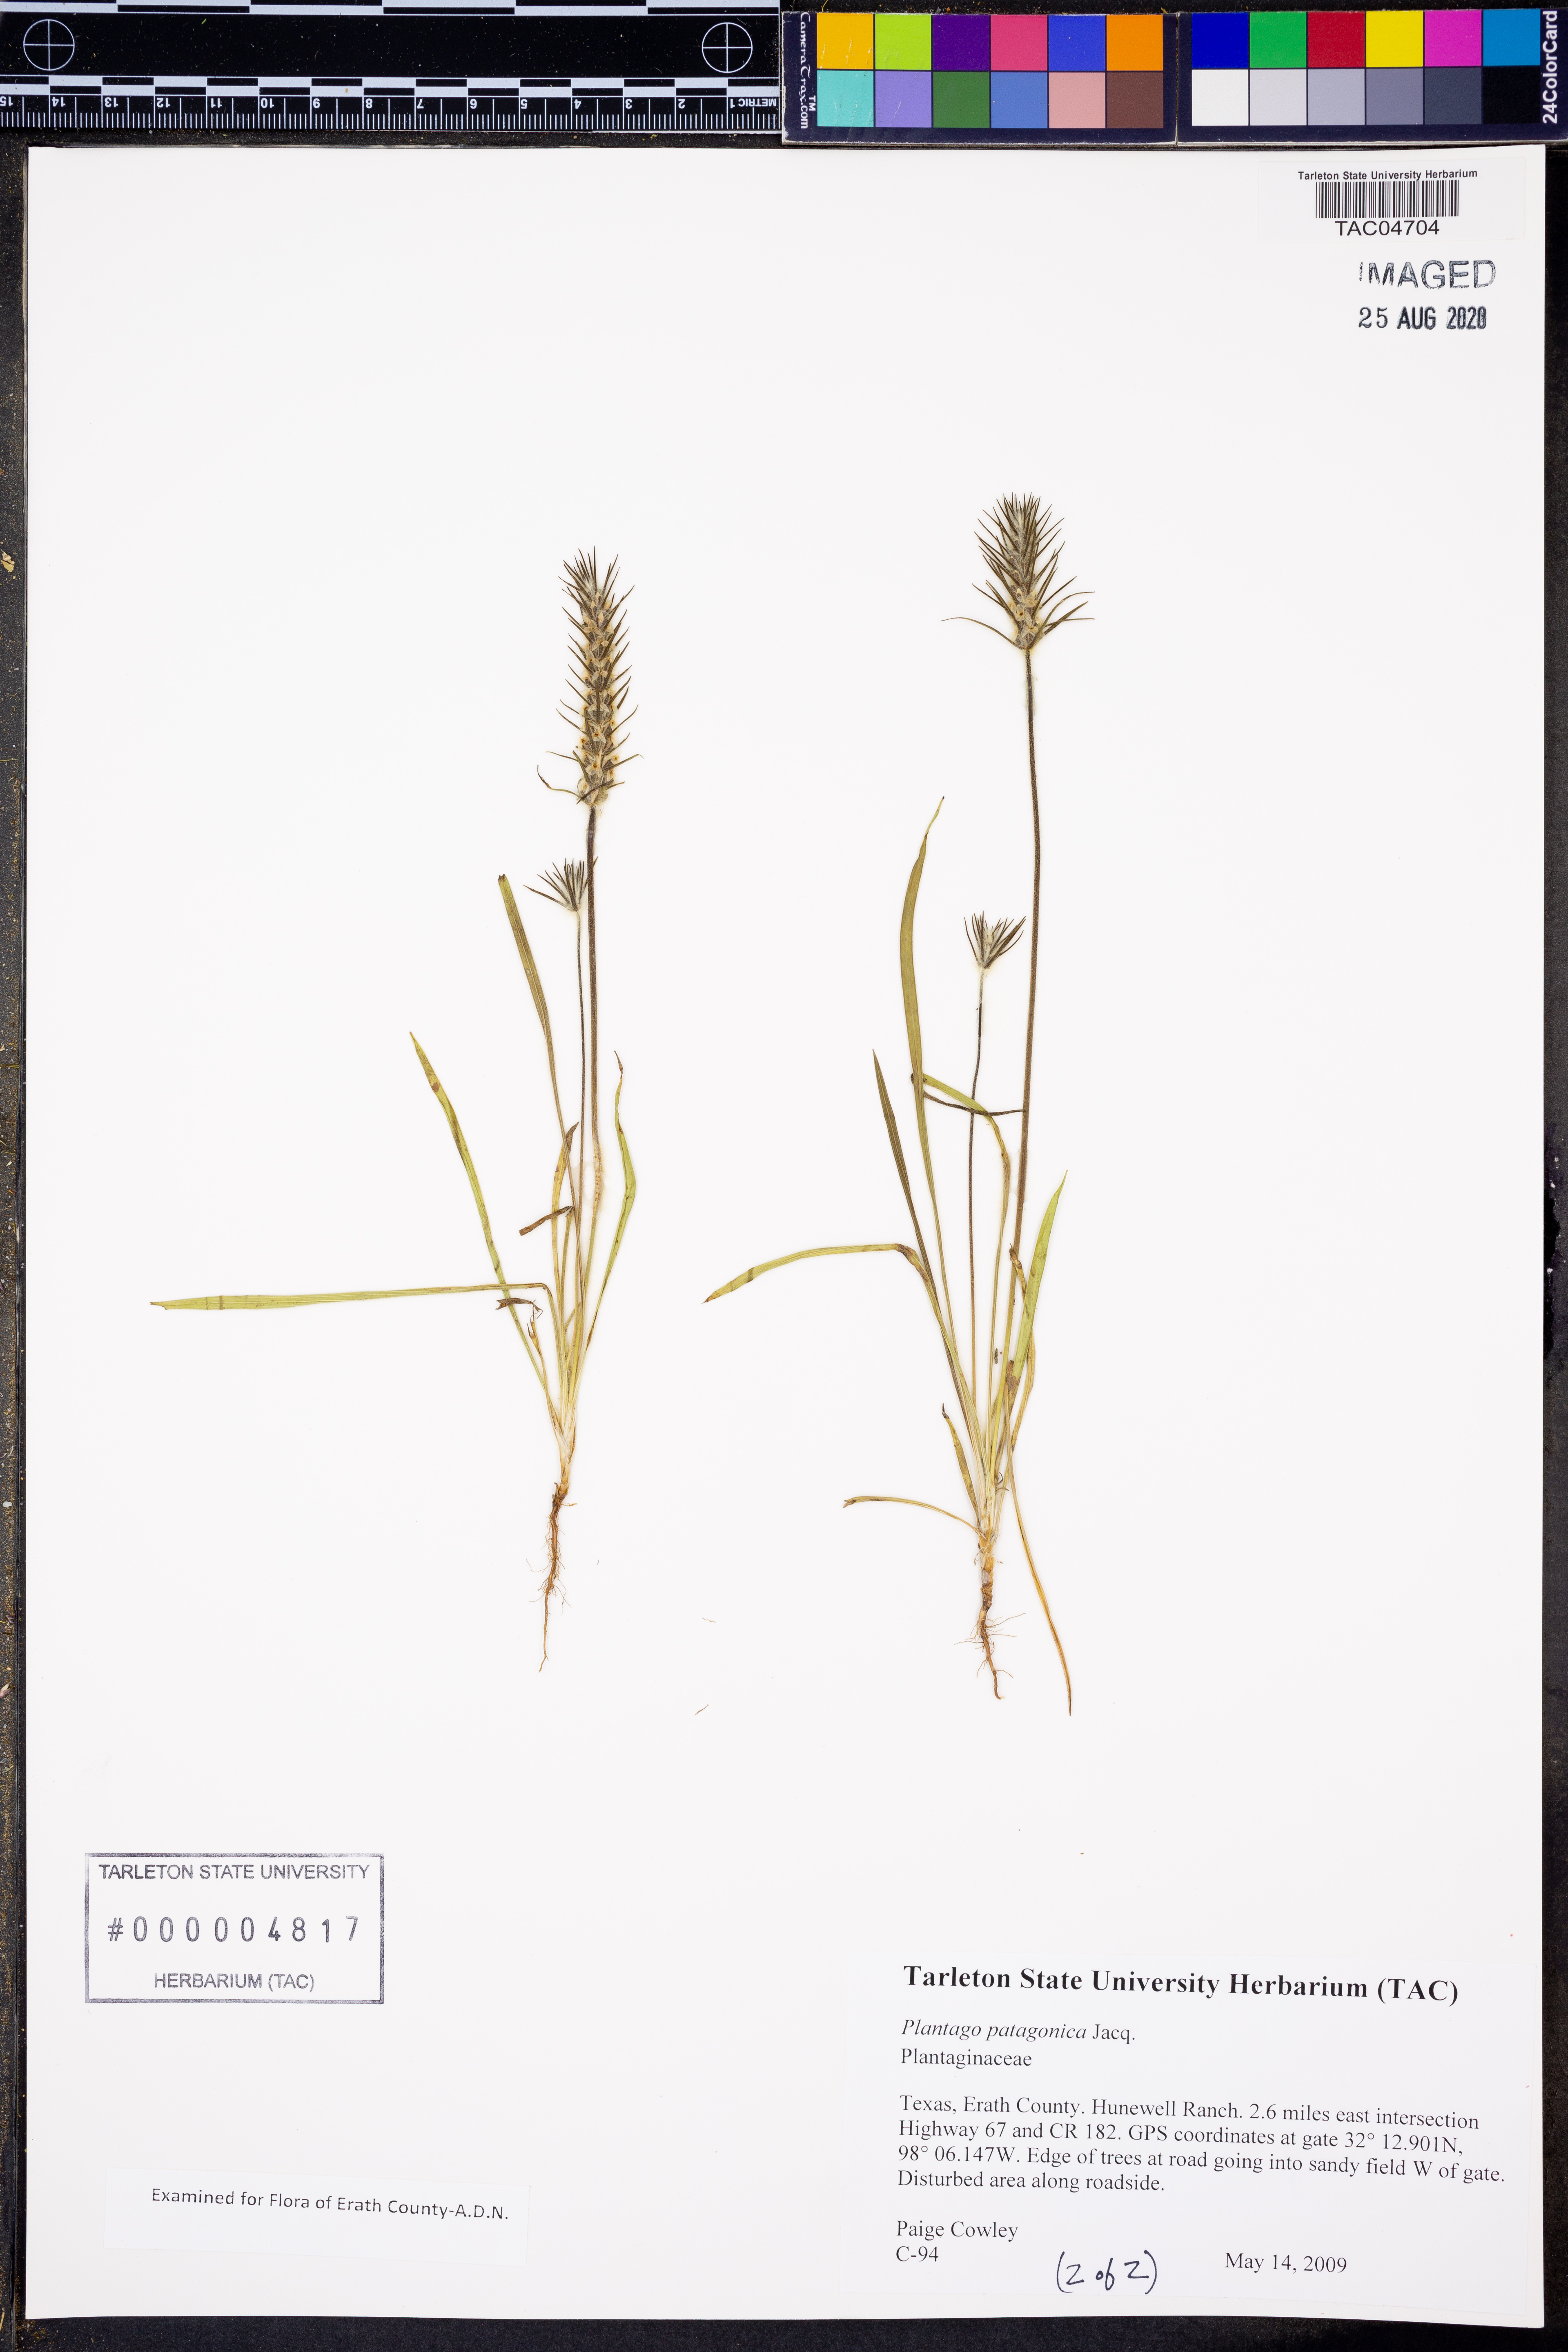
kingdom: Plantae
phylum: Tracheophyta
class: Magnoliopsida
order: Lamiales
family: Plantaginaceae
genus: Plantago
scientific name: Plantago patagonica
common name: Patagonia indian-wheat
